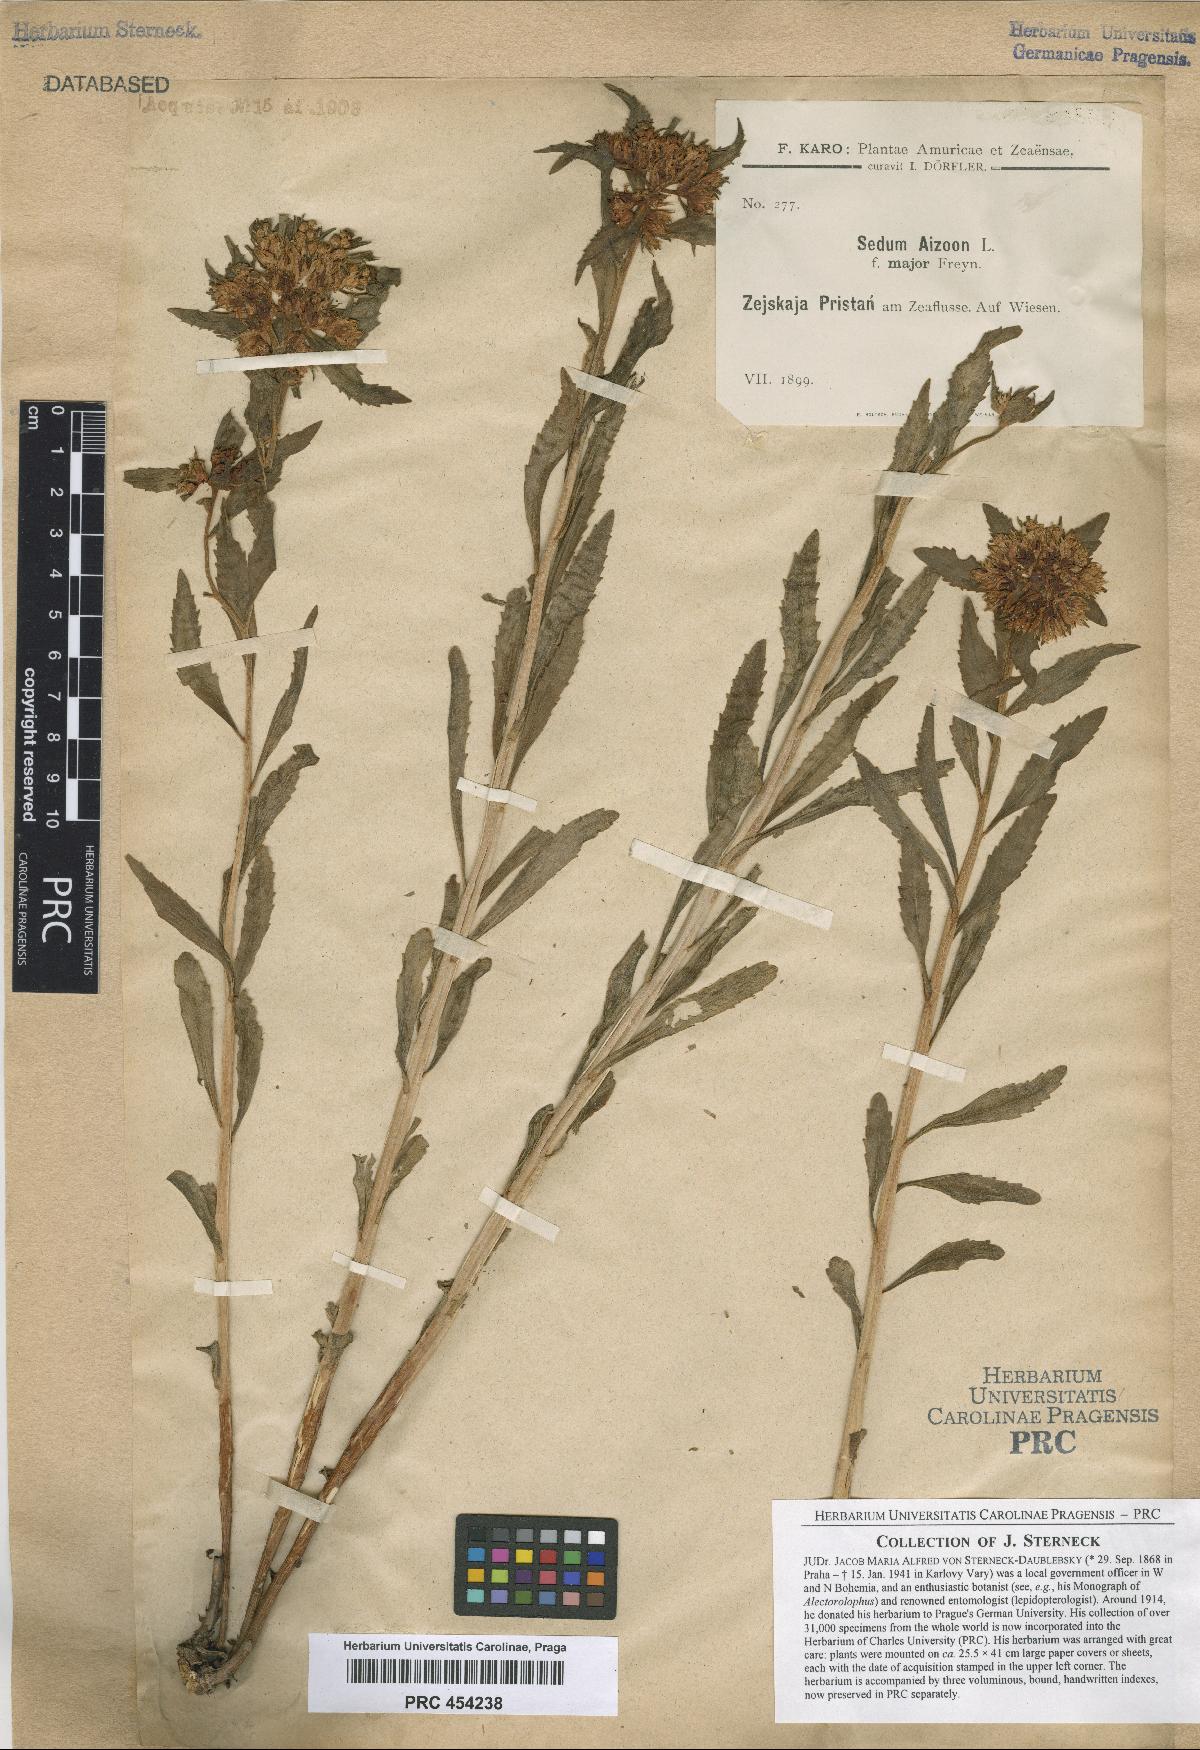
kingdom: Plantae
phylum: Tracheophyta
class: Magnoliopsida
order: Saxifragales
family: Crassulaceae
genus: Sedum
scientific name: Sedum aizoon
